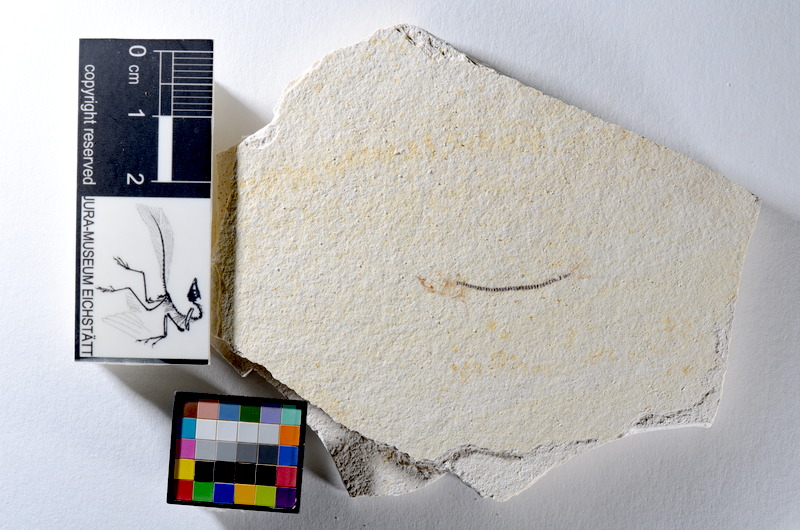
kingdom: Animalia
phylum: Chordata
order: Salmoniformes
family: Orthogonikleithridae
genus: Orthogonikleithrus
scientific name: Orthogonikleithrus hoelli
